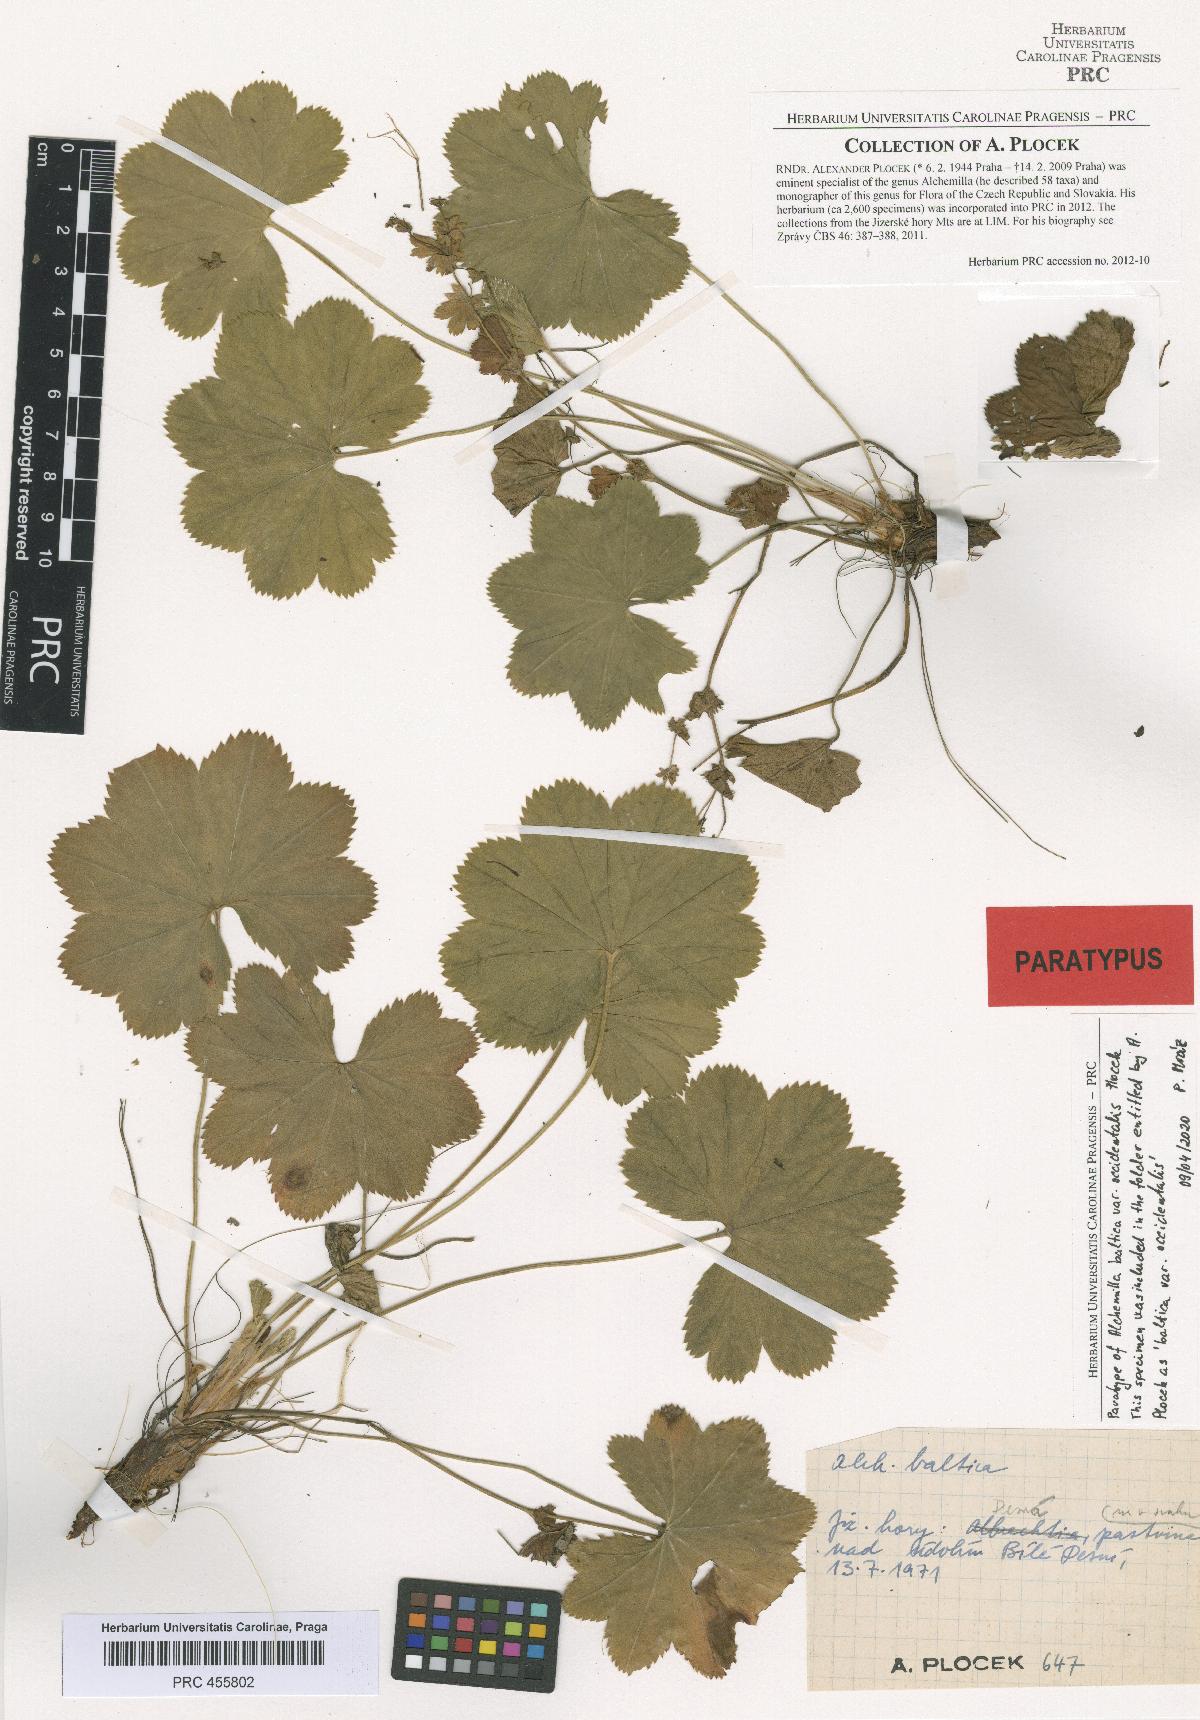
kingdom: Plantae
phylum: Tracheophyta
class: Magnoliopsida
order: Rosales
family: Rosaceae
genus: Alchemilla
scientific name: Alchemilla corcontica
